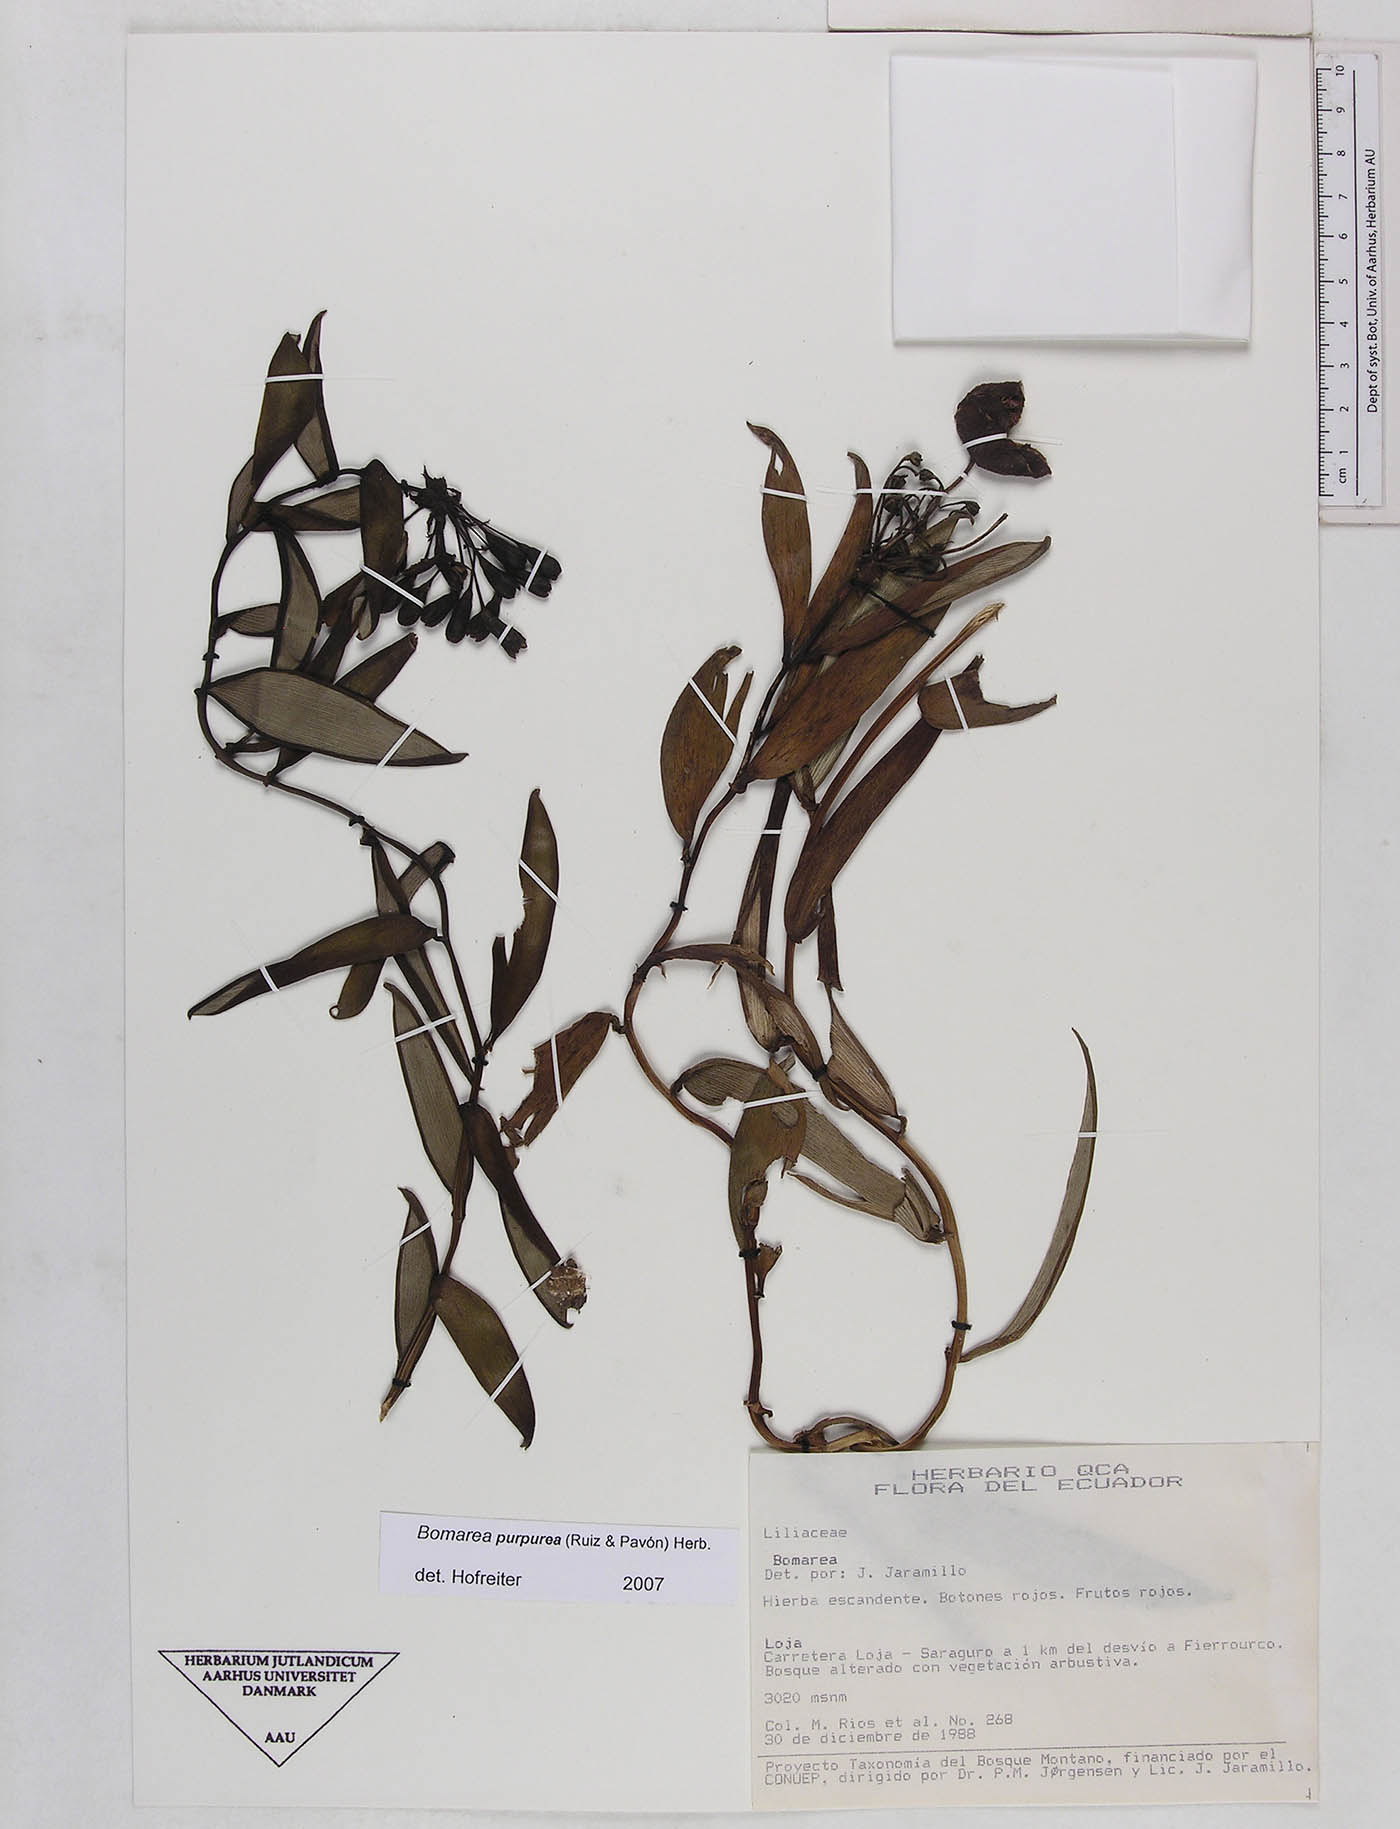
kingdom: Plantae
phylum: Tracheophyta
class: Liliopsida
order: Liliales
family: Alstroemeriaceae
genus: Bomarea
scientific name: Bomarea purpurea
